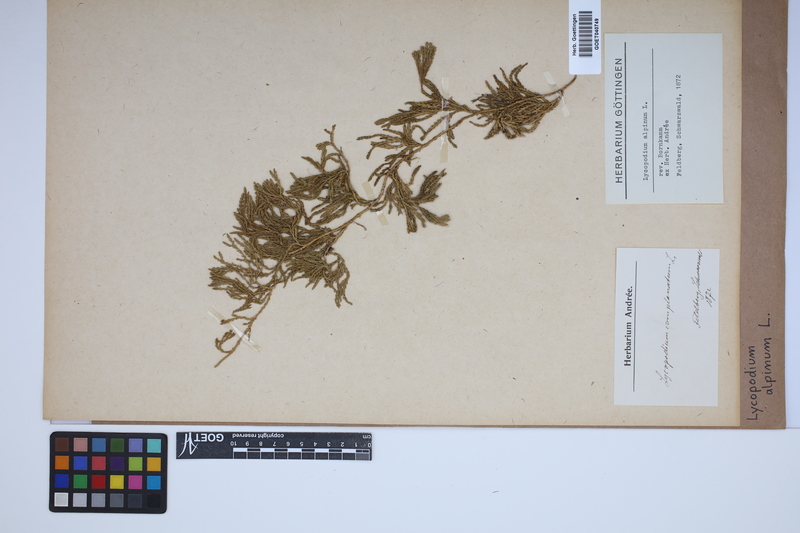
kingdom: Plantae
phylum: Tracheophyta
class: Lycopodiopsida
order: Lycopodiales
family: Lycopodiaceae
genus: Diphasiastrum
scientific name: Diphasiastrum alpinum
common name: Alpine clubmoss
